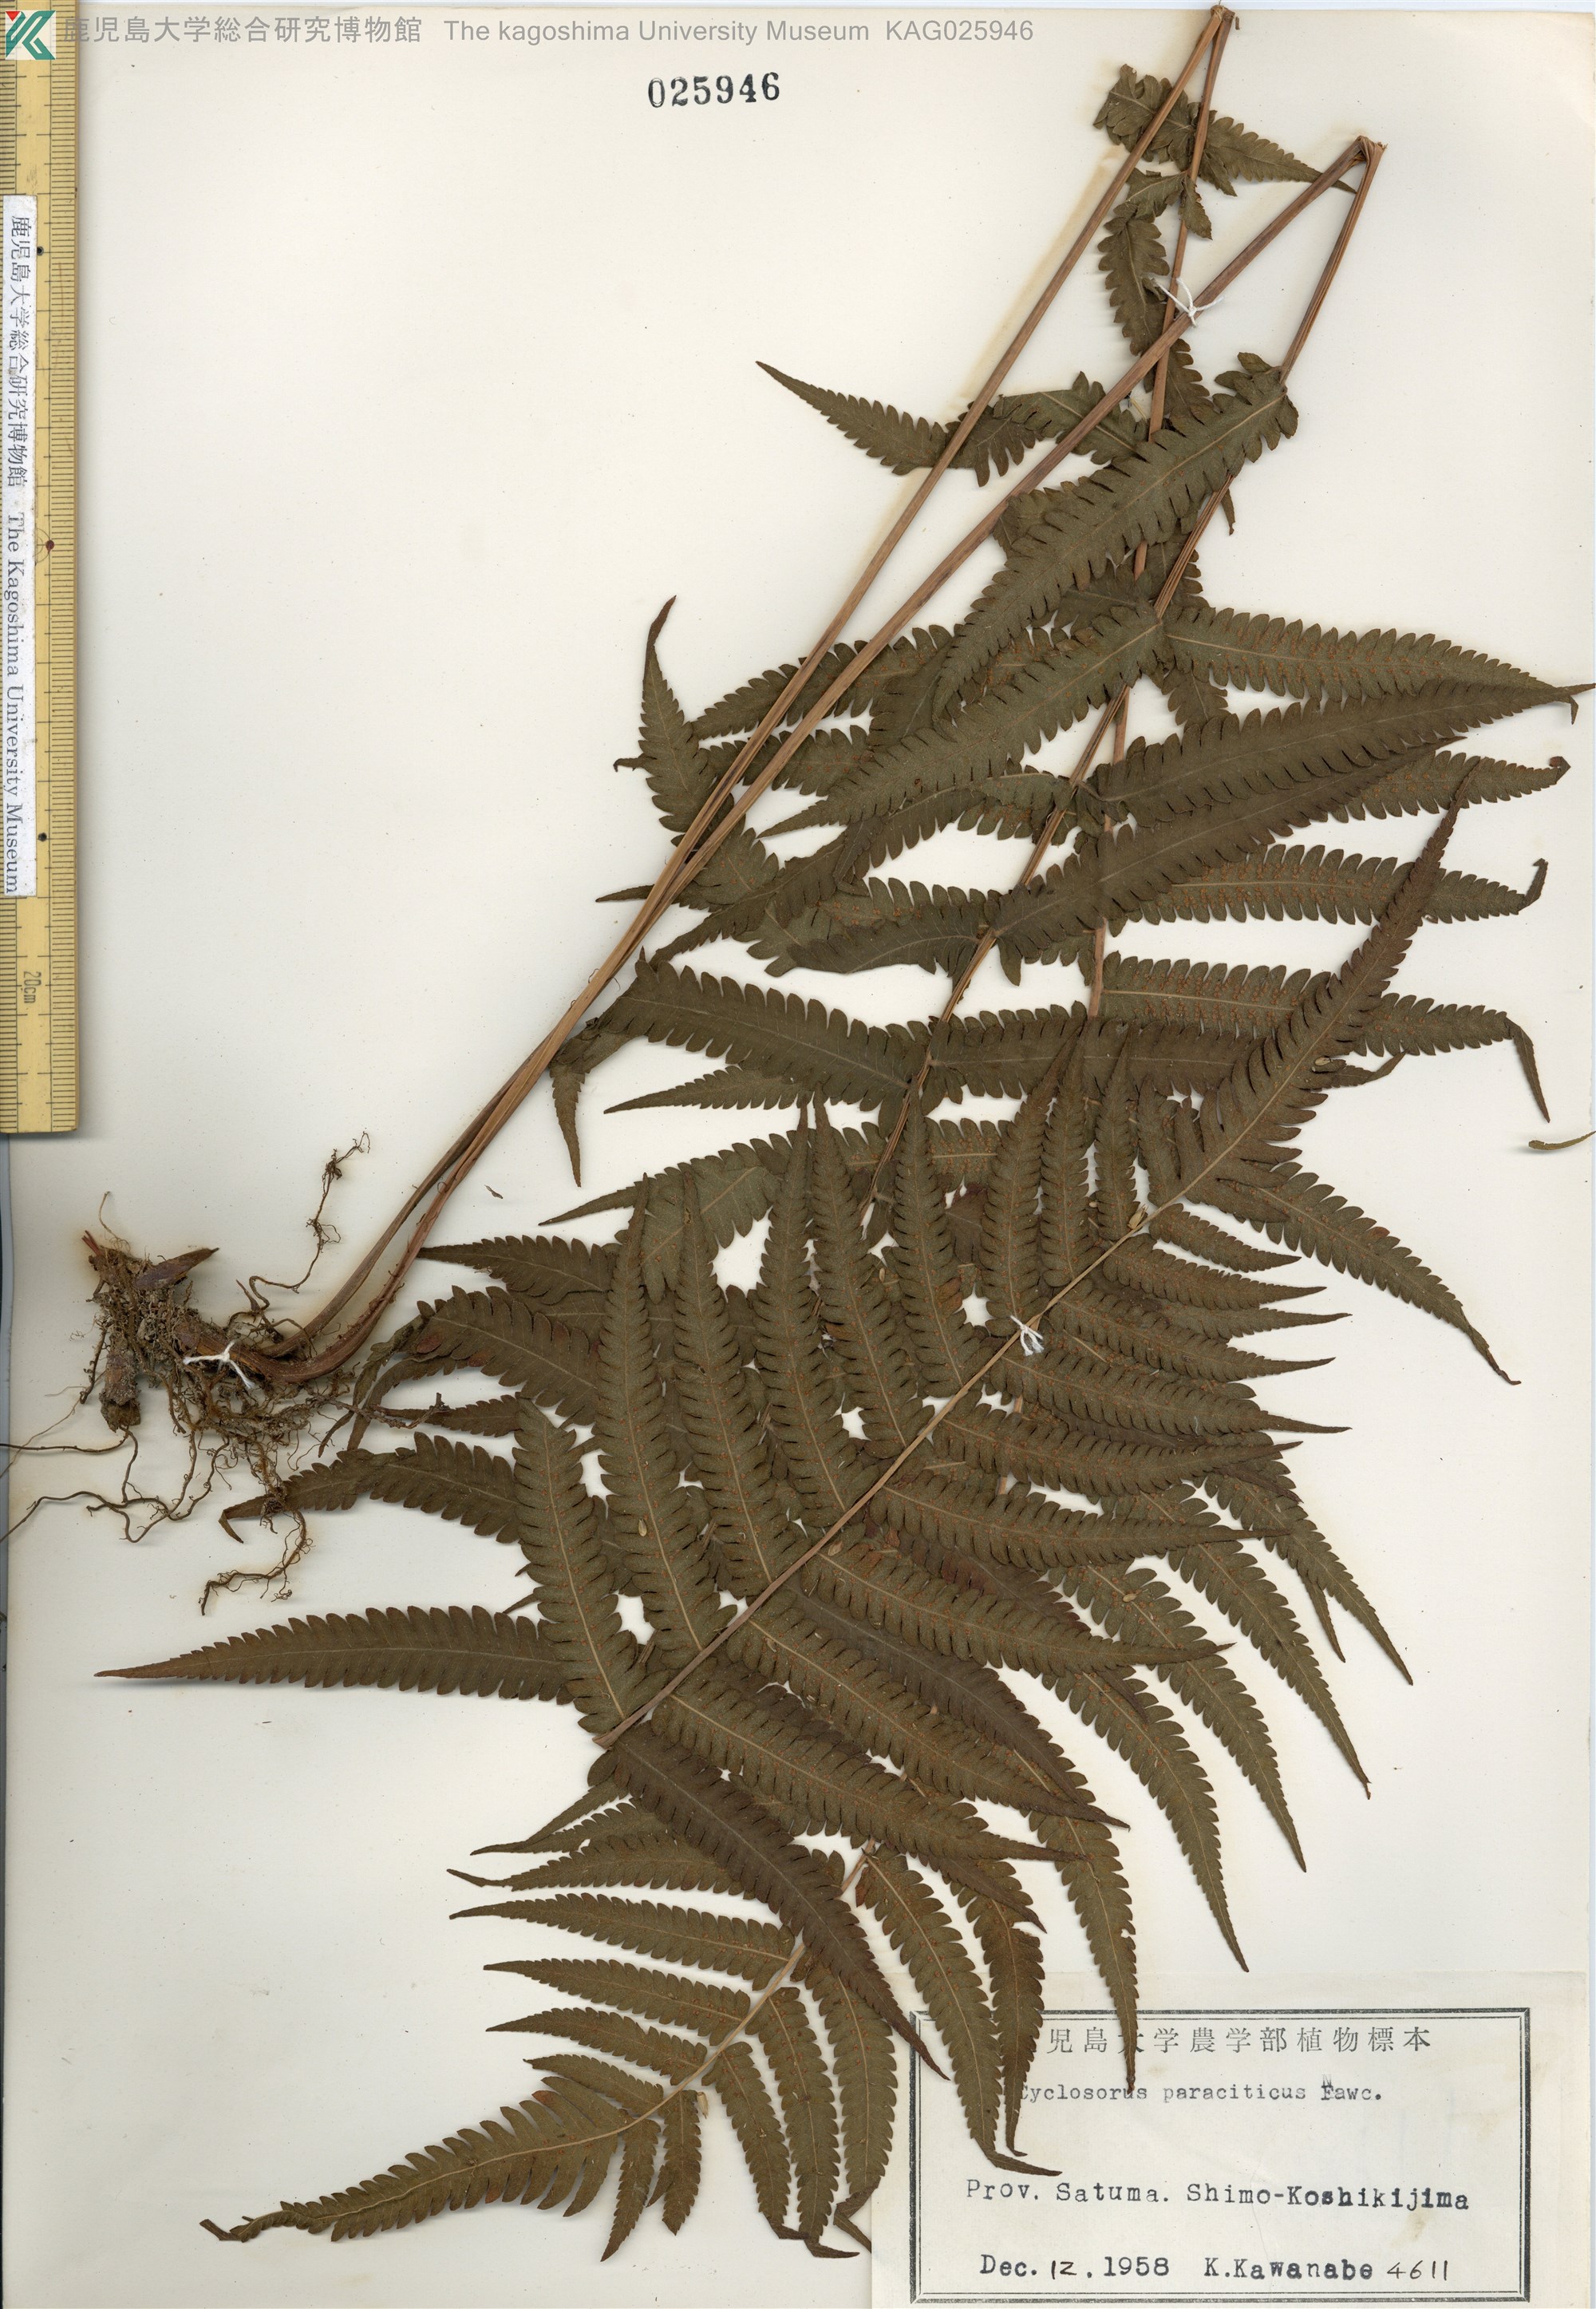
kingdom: Plantae
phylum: Tracheophyta
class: Polypodiopsida
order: Polypodiales
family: Thelypteridaceae
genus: Christella
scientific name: Christella parasitica
